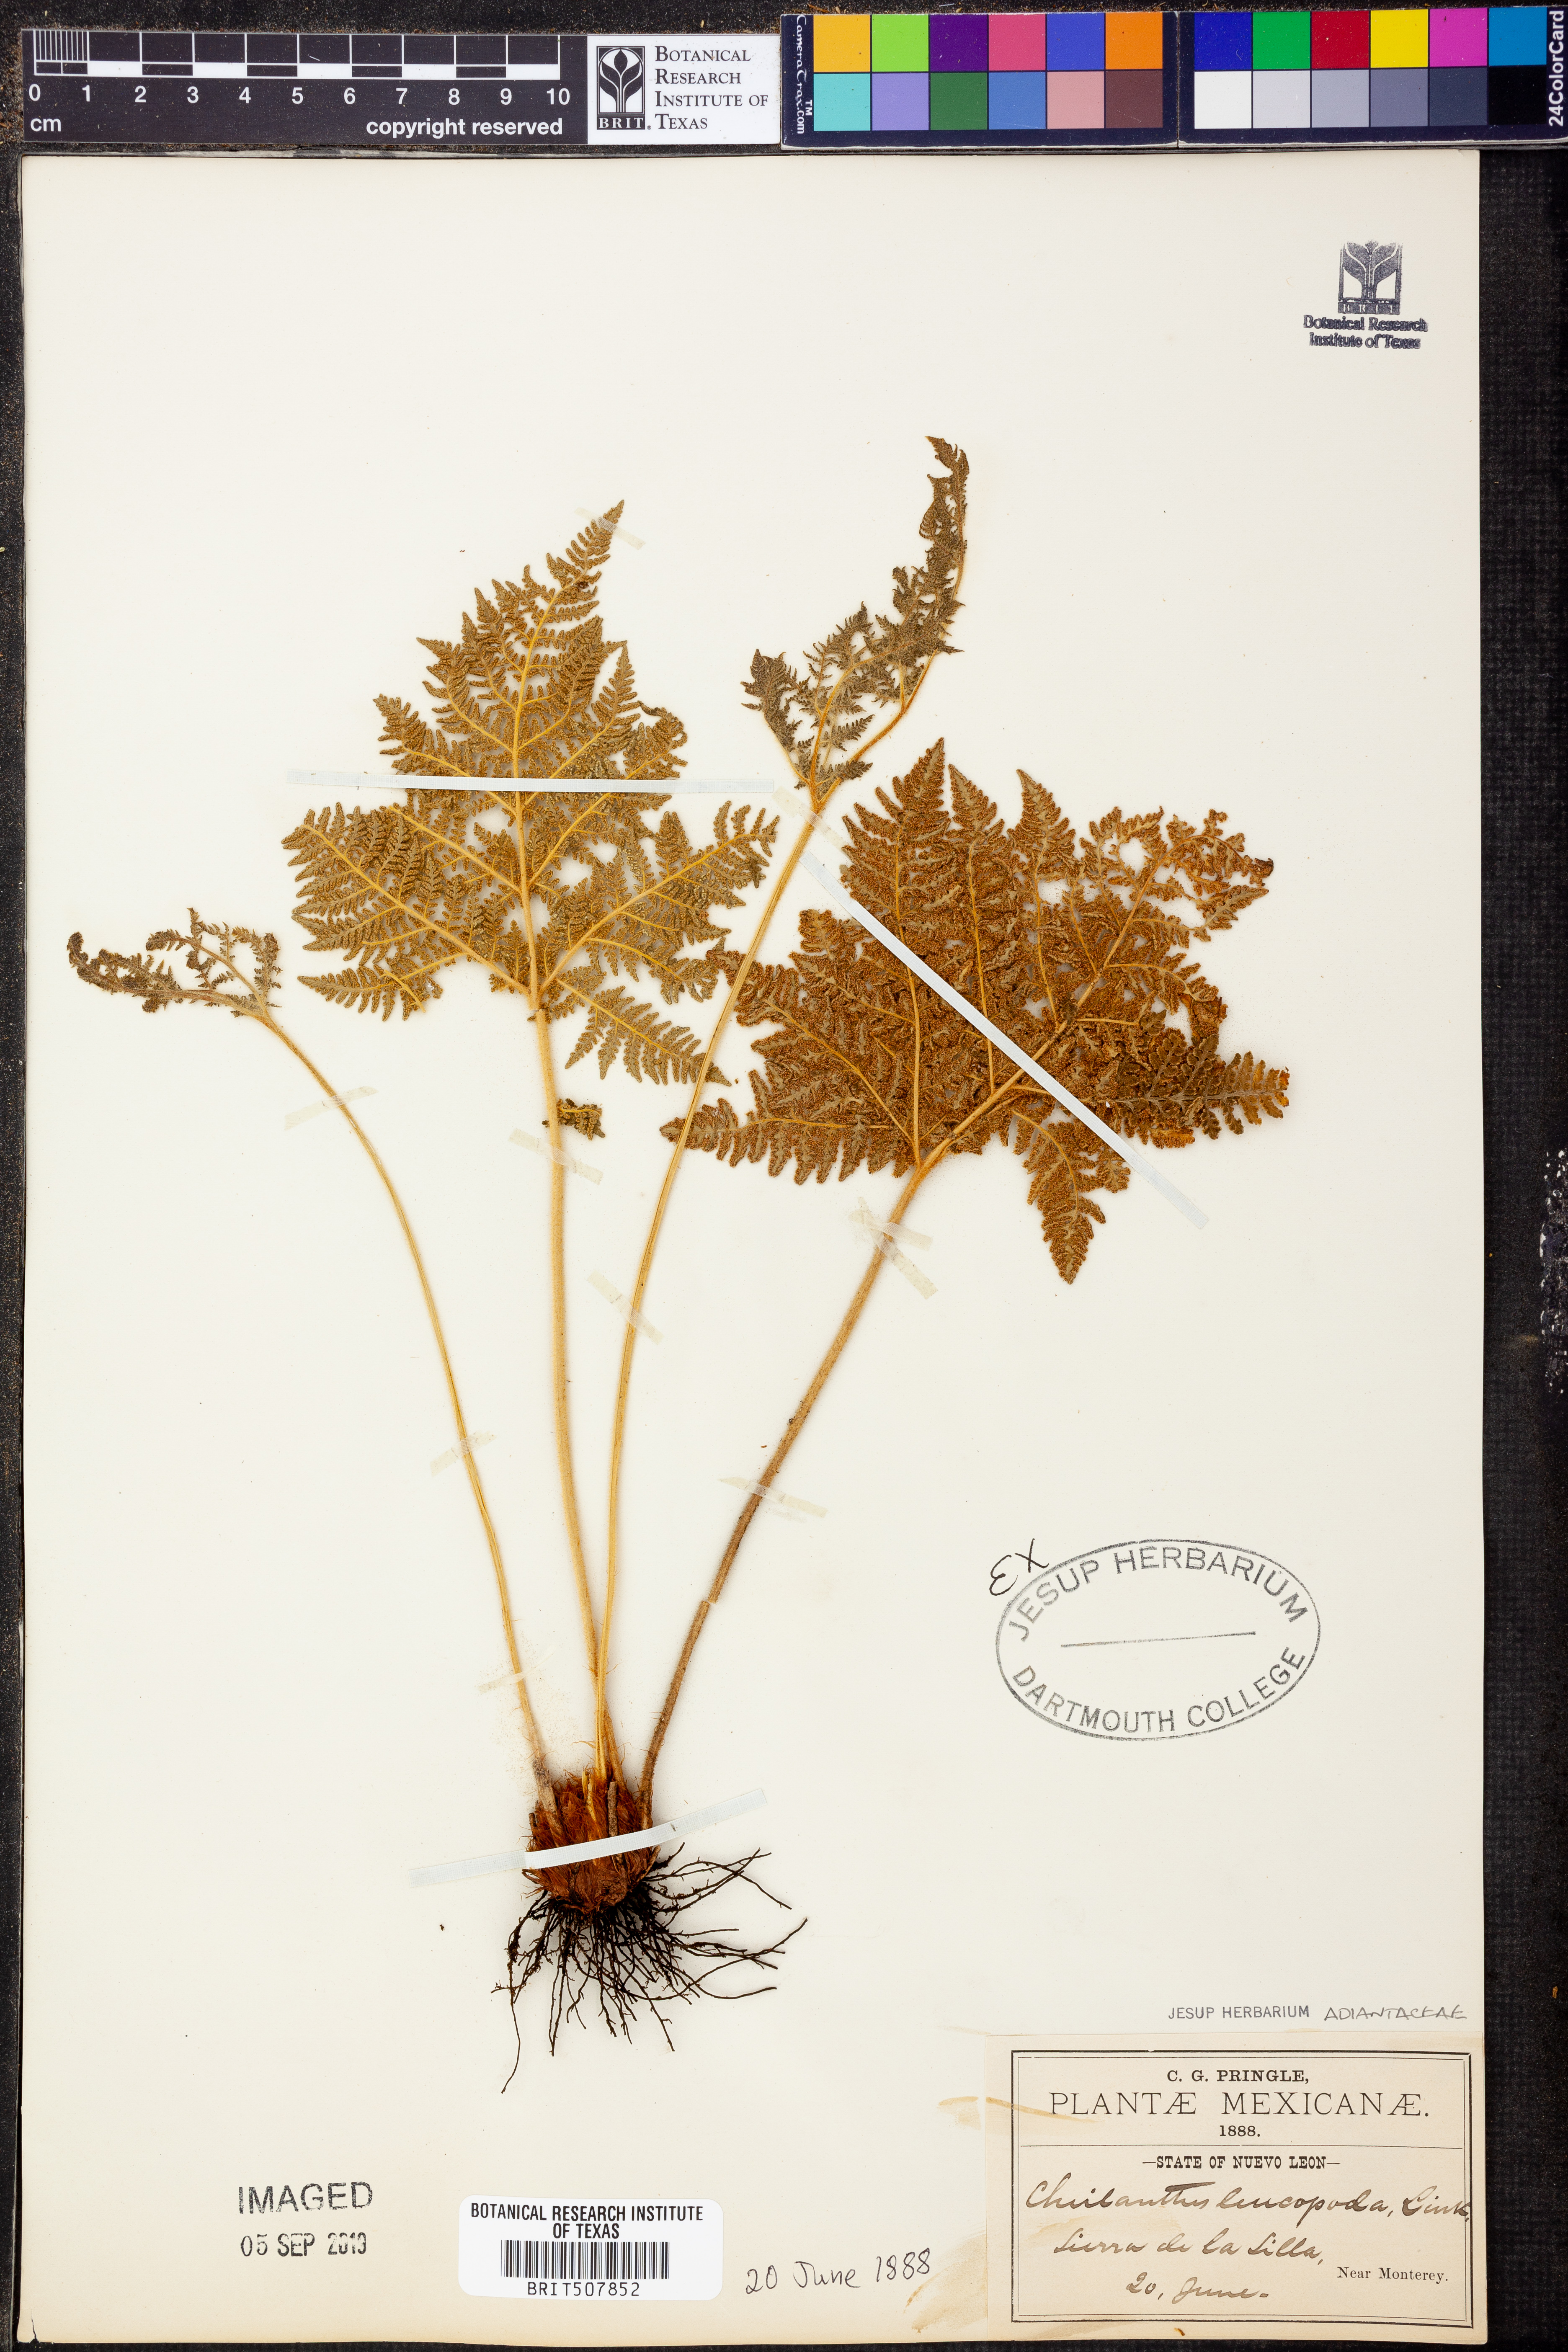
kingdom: Plantae
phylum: Tracheophyta
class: Polypodiopsida
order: Polypodiales
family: Pteridaceae
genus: Cheilanthes
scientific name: Cheilanthes leucopoda
